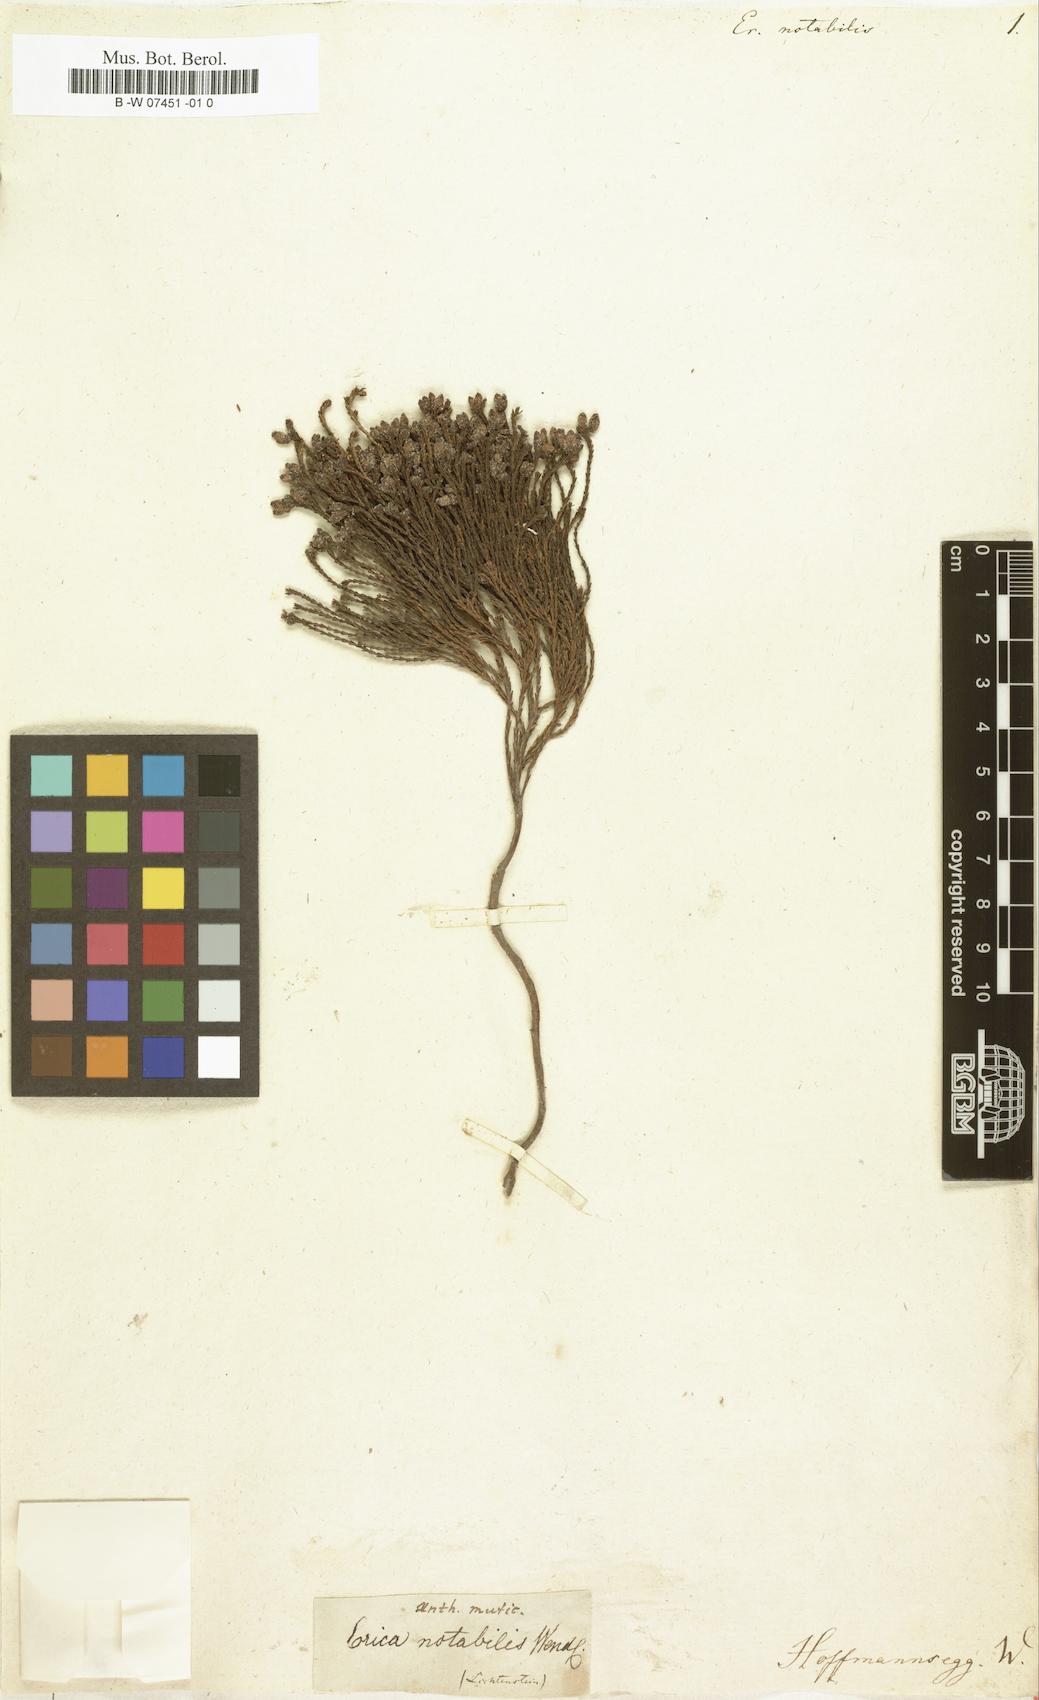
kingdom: Plantae
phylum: Tracheophyta
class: Magnoliopsida
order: Ericales
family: Ericaceae
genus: Erica
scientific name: Erica tubercularis
